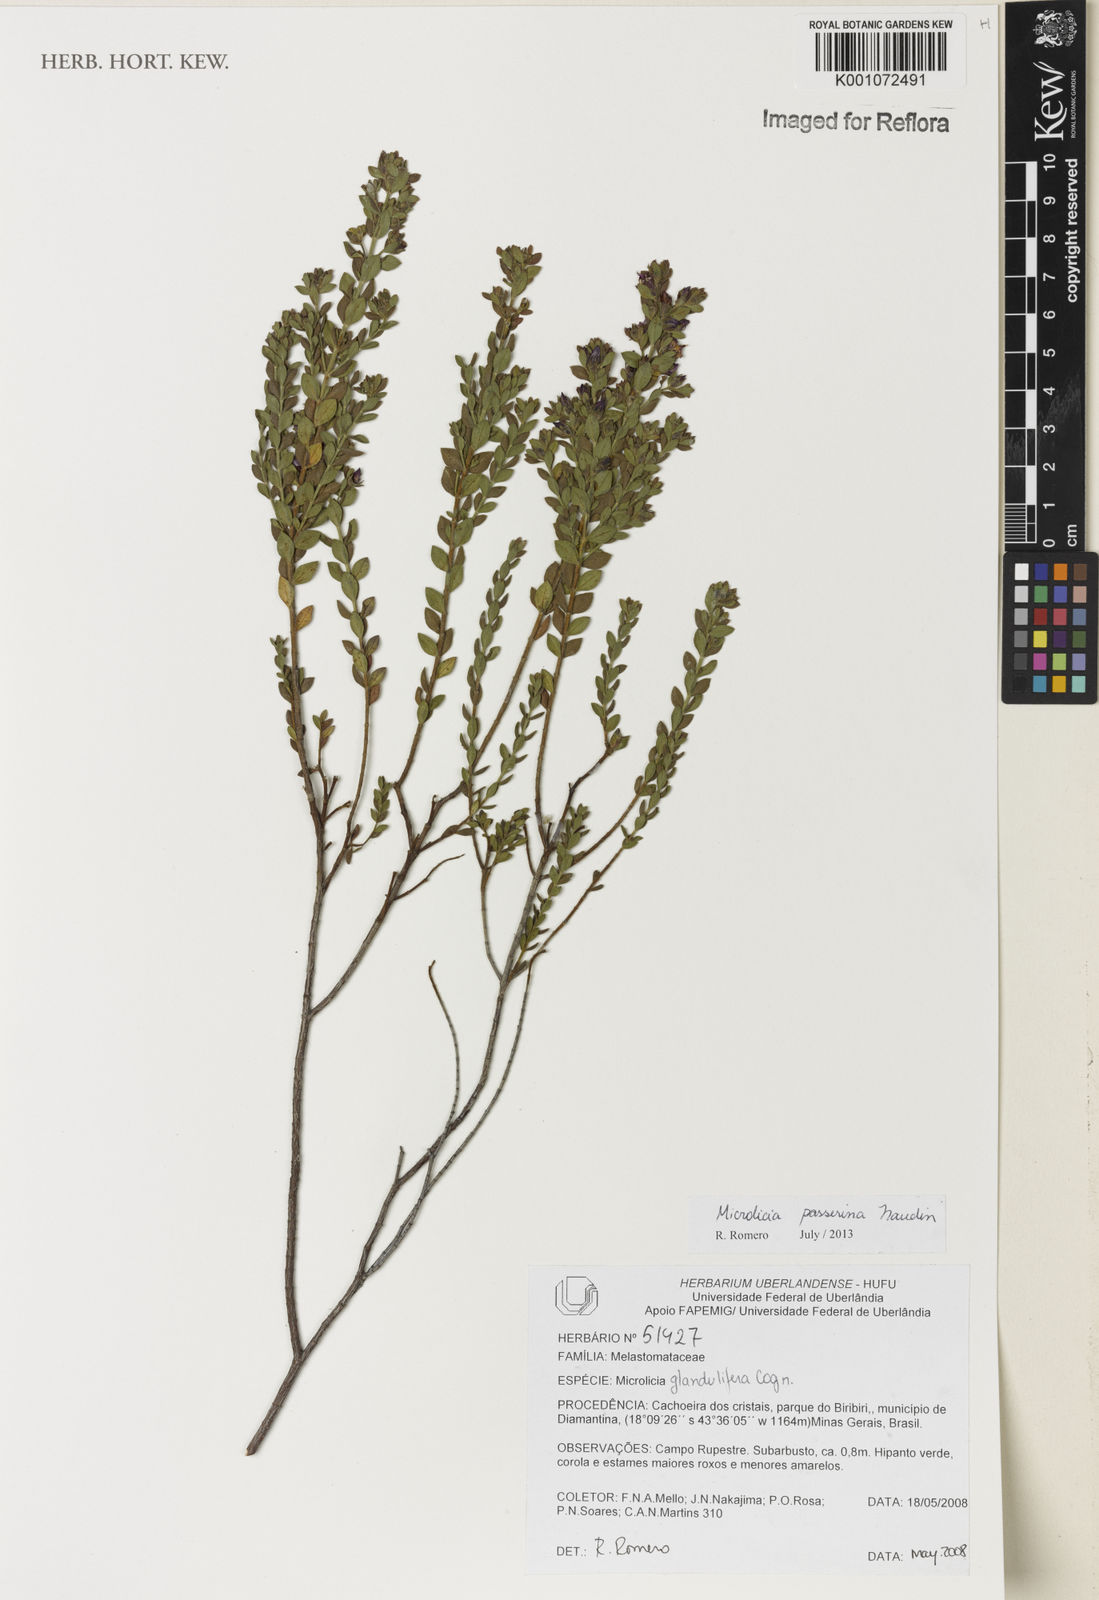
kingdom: Plantae
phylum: Tracheophyta
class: Magnoliopsida
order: Myrtales
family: Melastomataceae
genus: Microlicia
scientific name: Microlicia passerina
